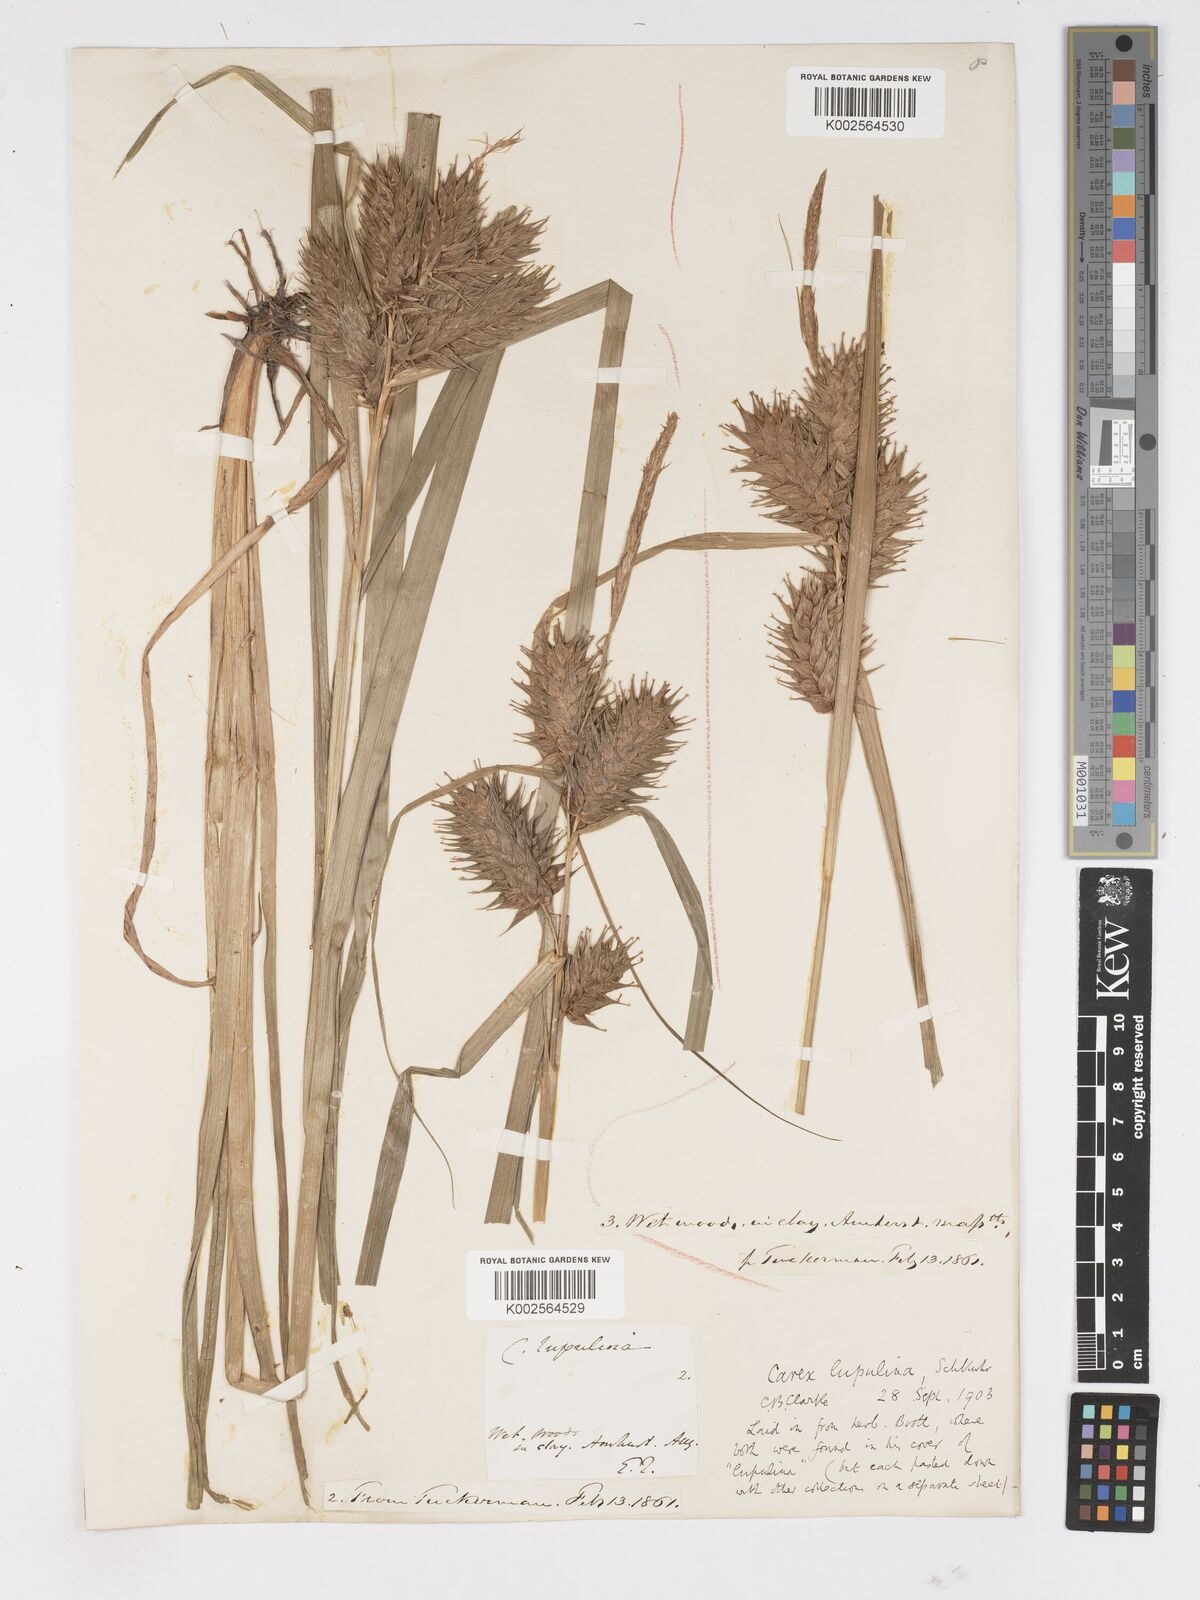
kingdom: Plantae
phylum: Tracheophyta
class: Liliopsida
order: Poales
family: Cyperaceae
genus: Carex
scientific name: Carex lupulina
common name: Hop sedge
